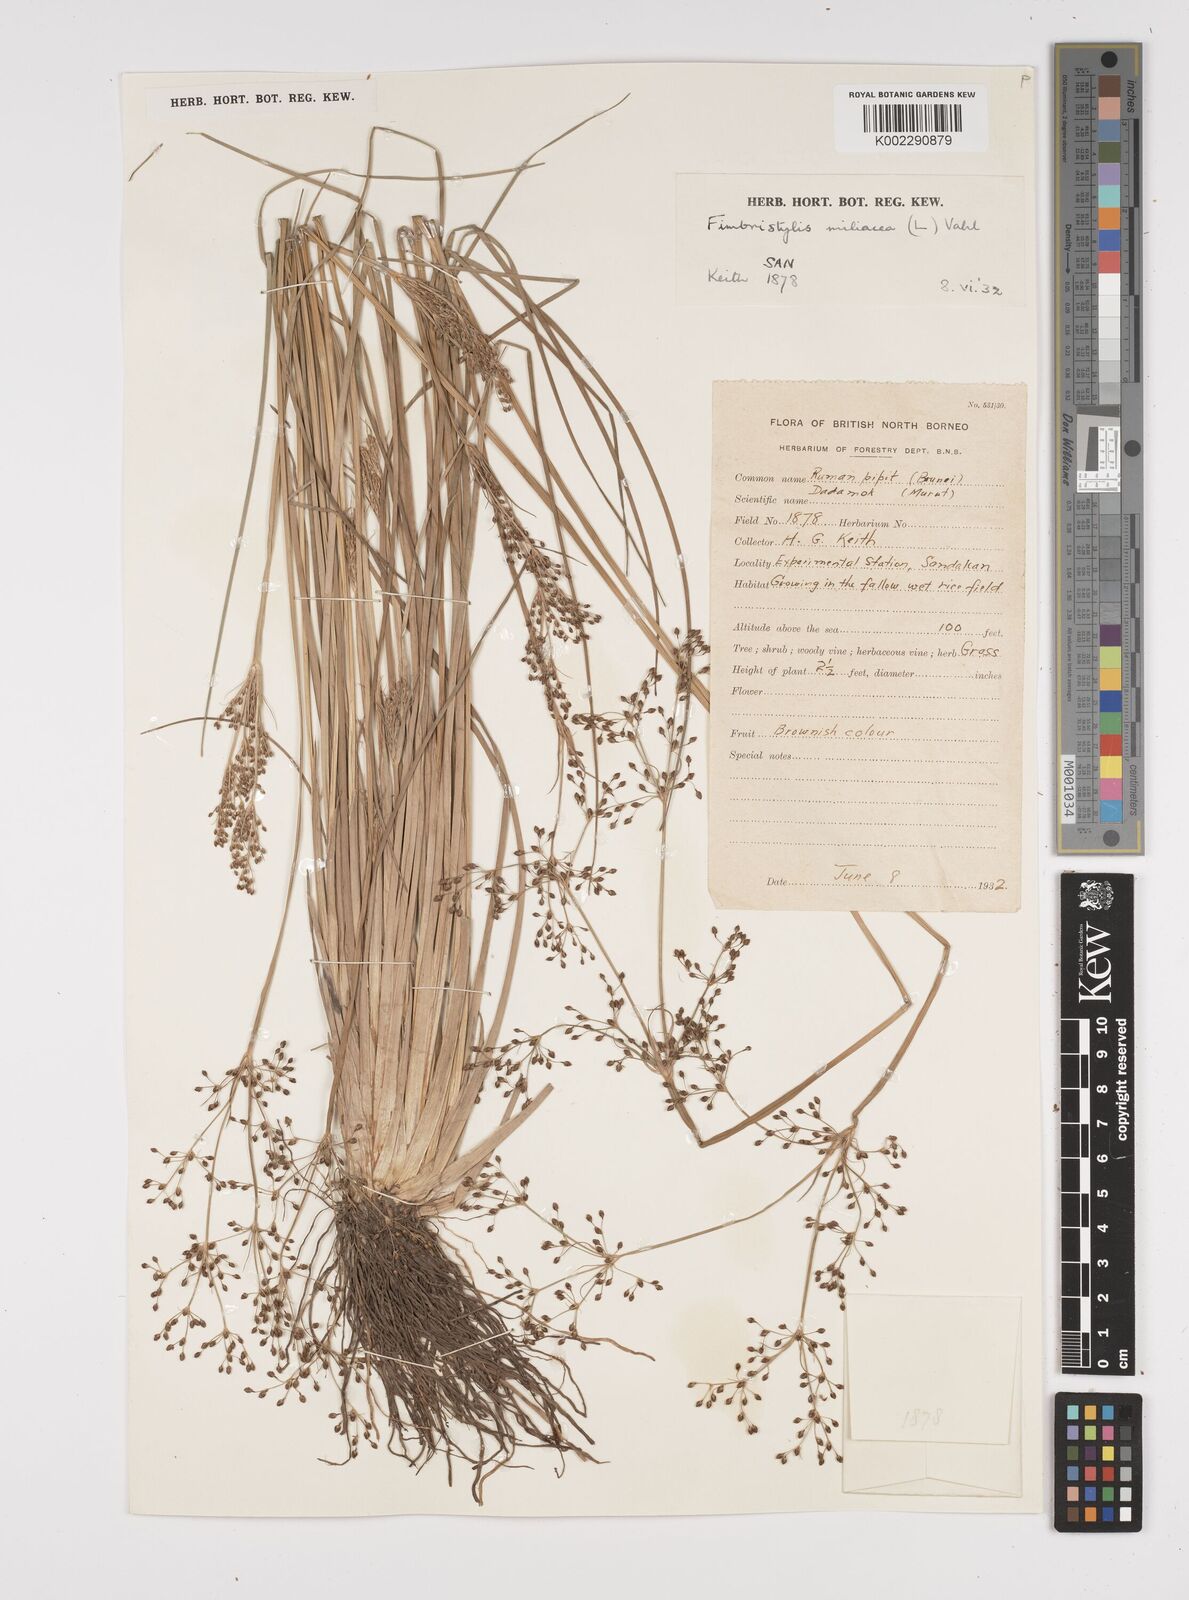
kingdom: Plantae
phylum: Tracheophyta
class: Liliopsida
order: Poales
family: Cyperaceae
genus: Fimbristylis
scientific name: Fimbristylis littoralis
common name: Fimbry
